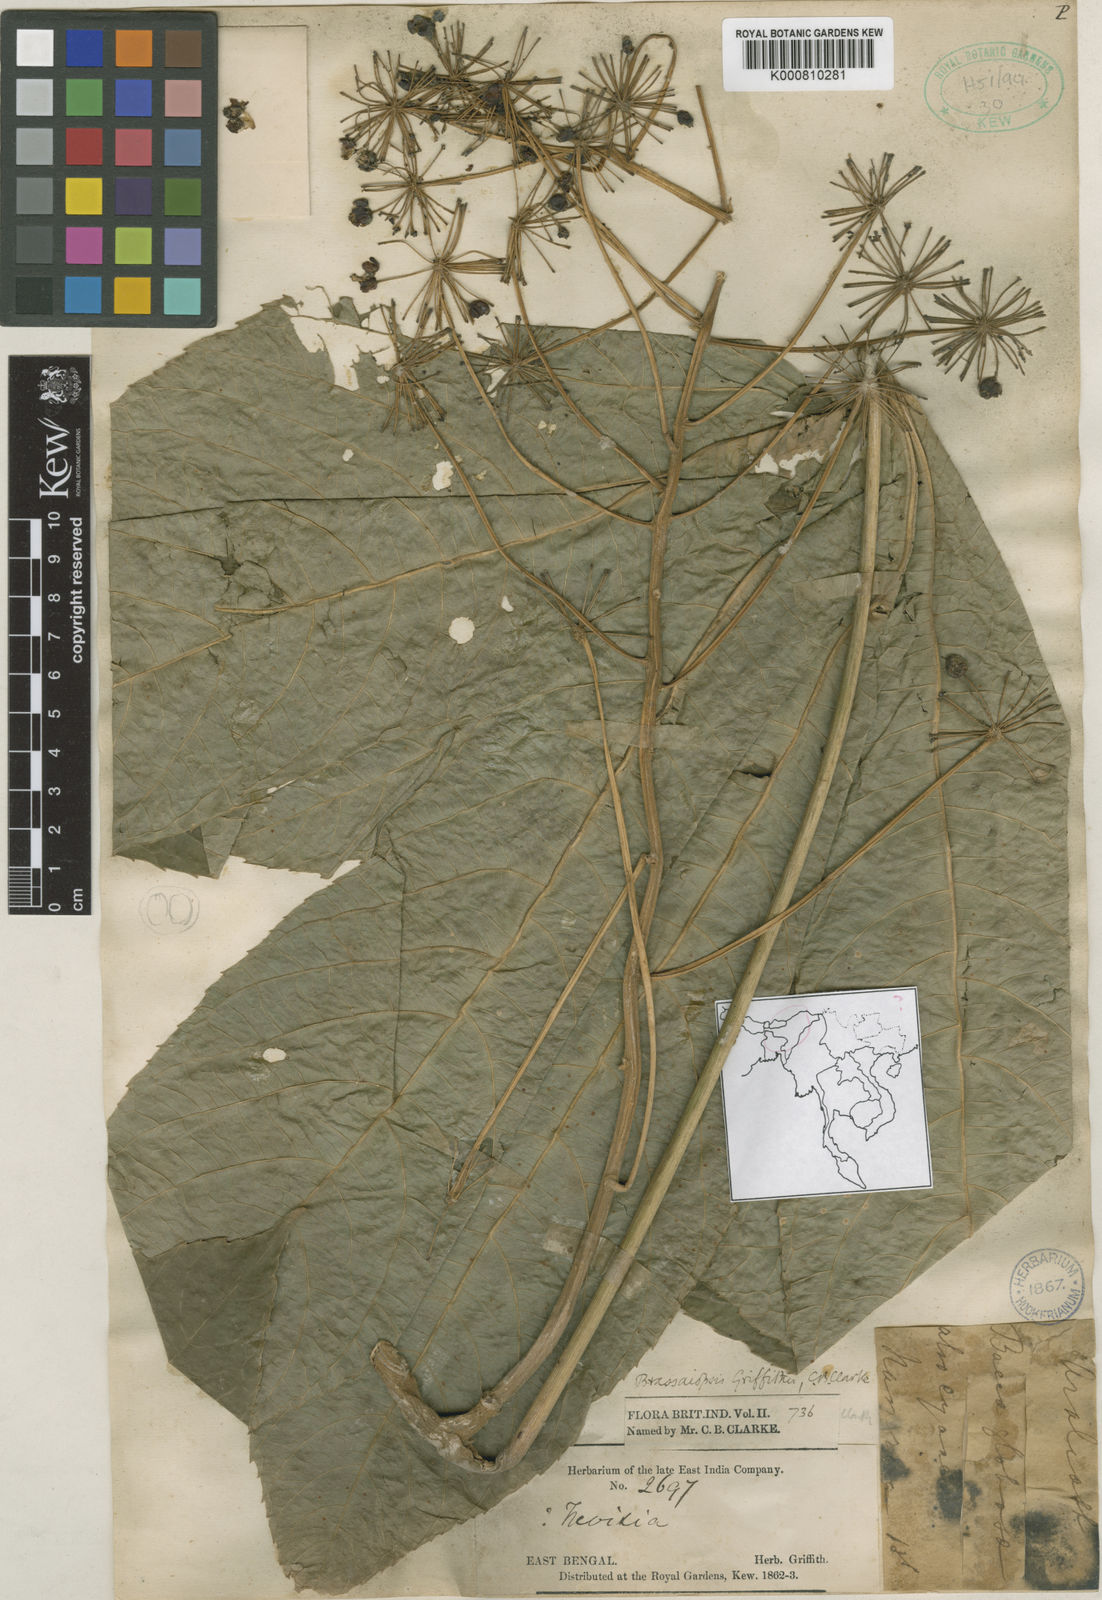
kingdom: Plantae
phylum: Tracheophyta
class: Magnoliopsida
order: Apiales
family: Araliaceae
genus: Brassaiopsis
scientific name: Brassaiopsis andamanica
